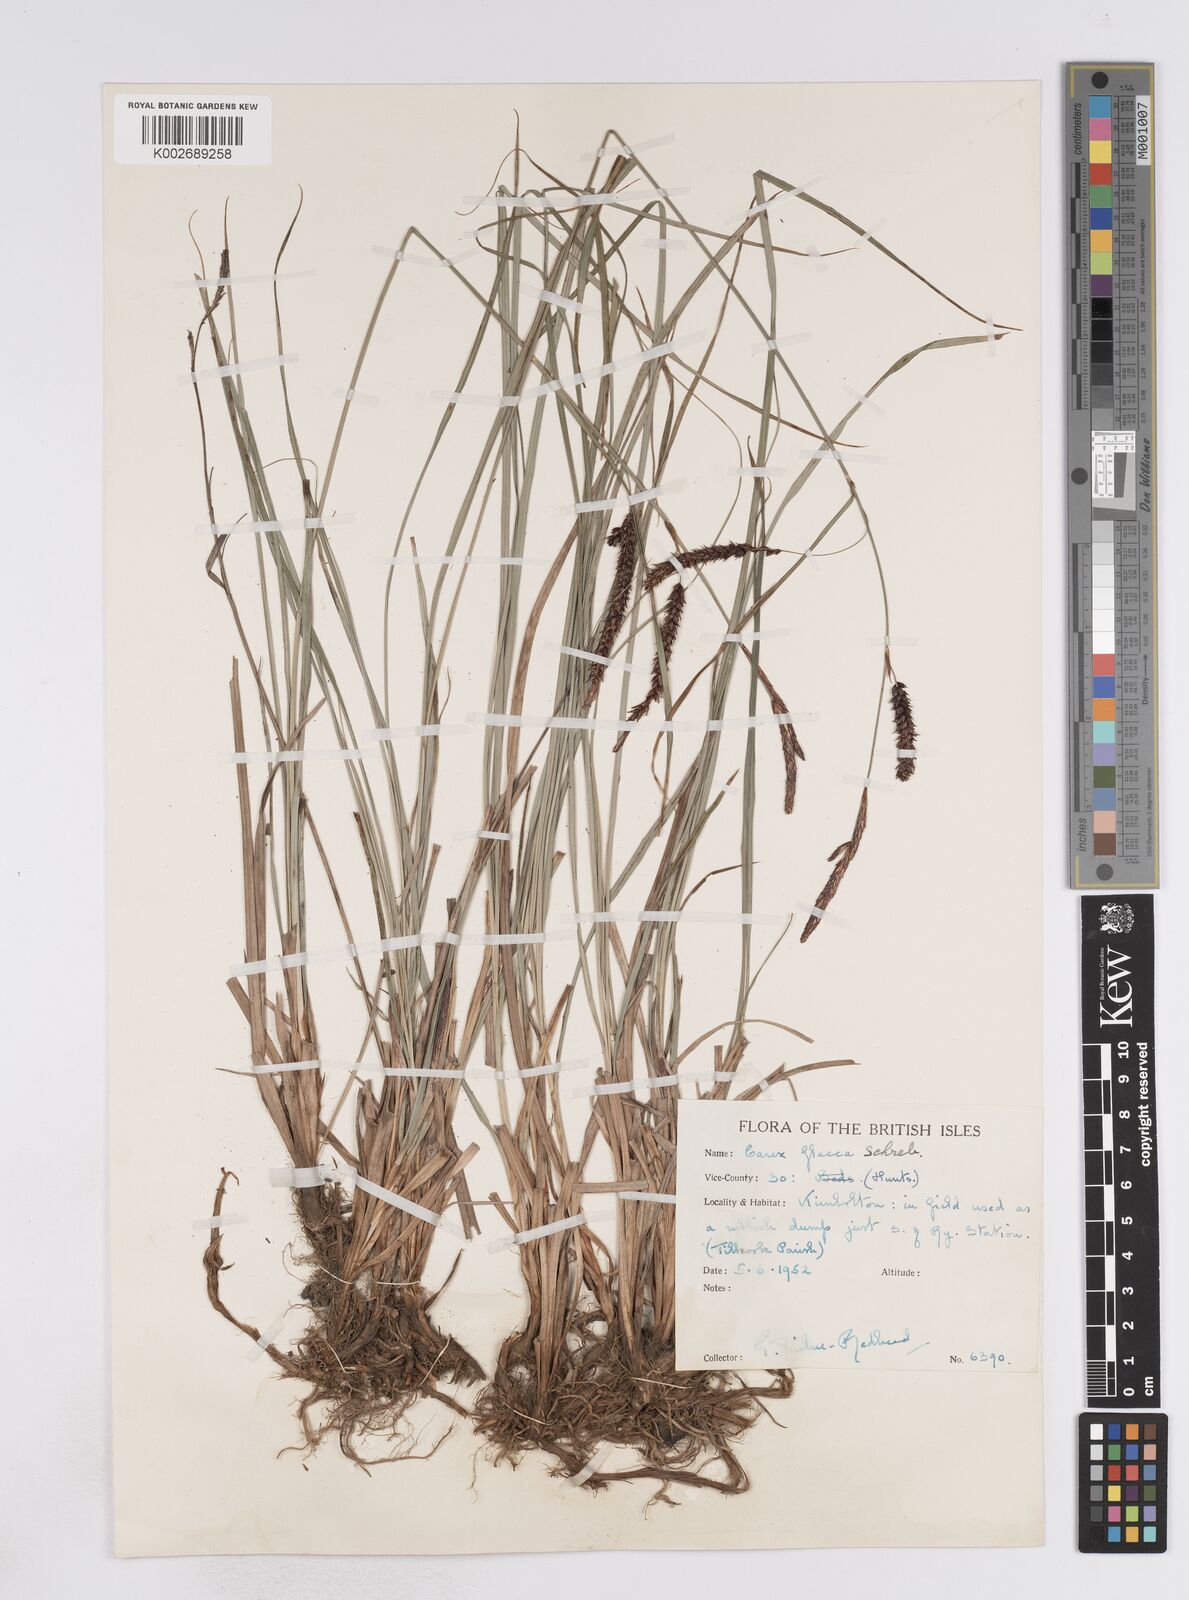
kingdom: Plantae
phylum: Tracheophyta
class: Liliopsida
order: Poales
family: Cyperaceae
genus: Carex
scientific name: Carex flacca
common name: Glaucous sedge
